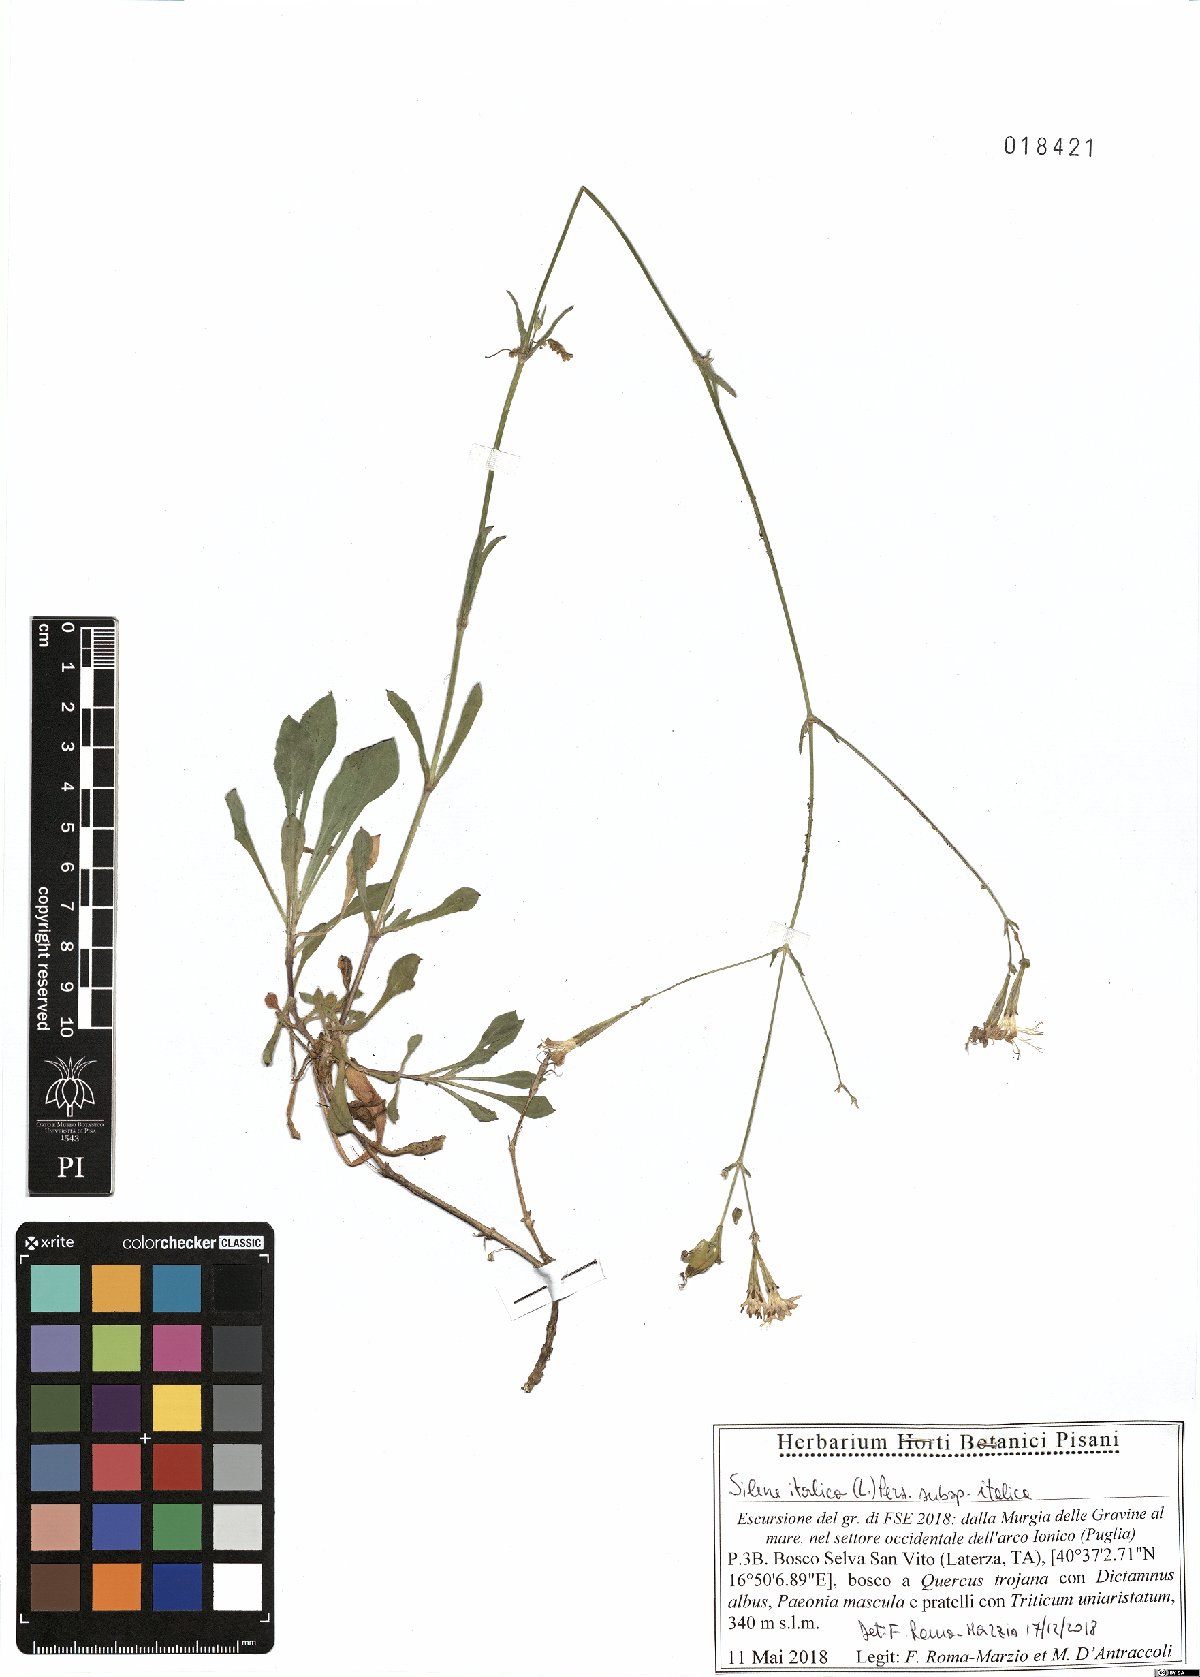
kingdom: Plantae
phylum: Tracheophyta
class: Magnoliopsida
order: Caryophyllales
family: Caryophyllaceae
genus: Silene
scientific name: Silene italica
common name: Italian catchfly
